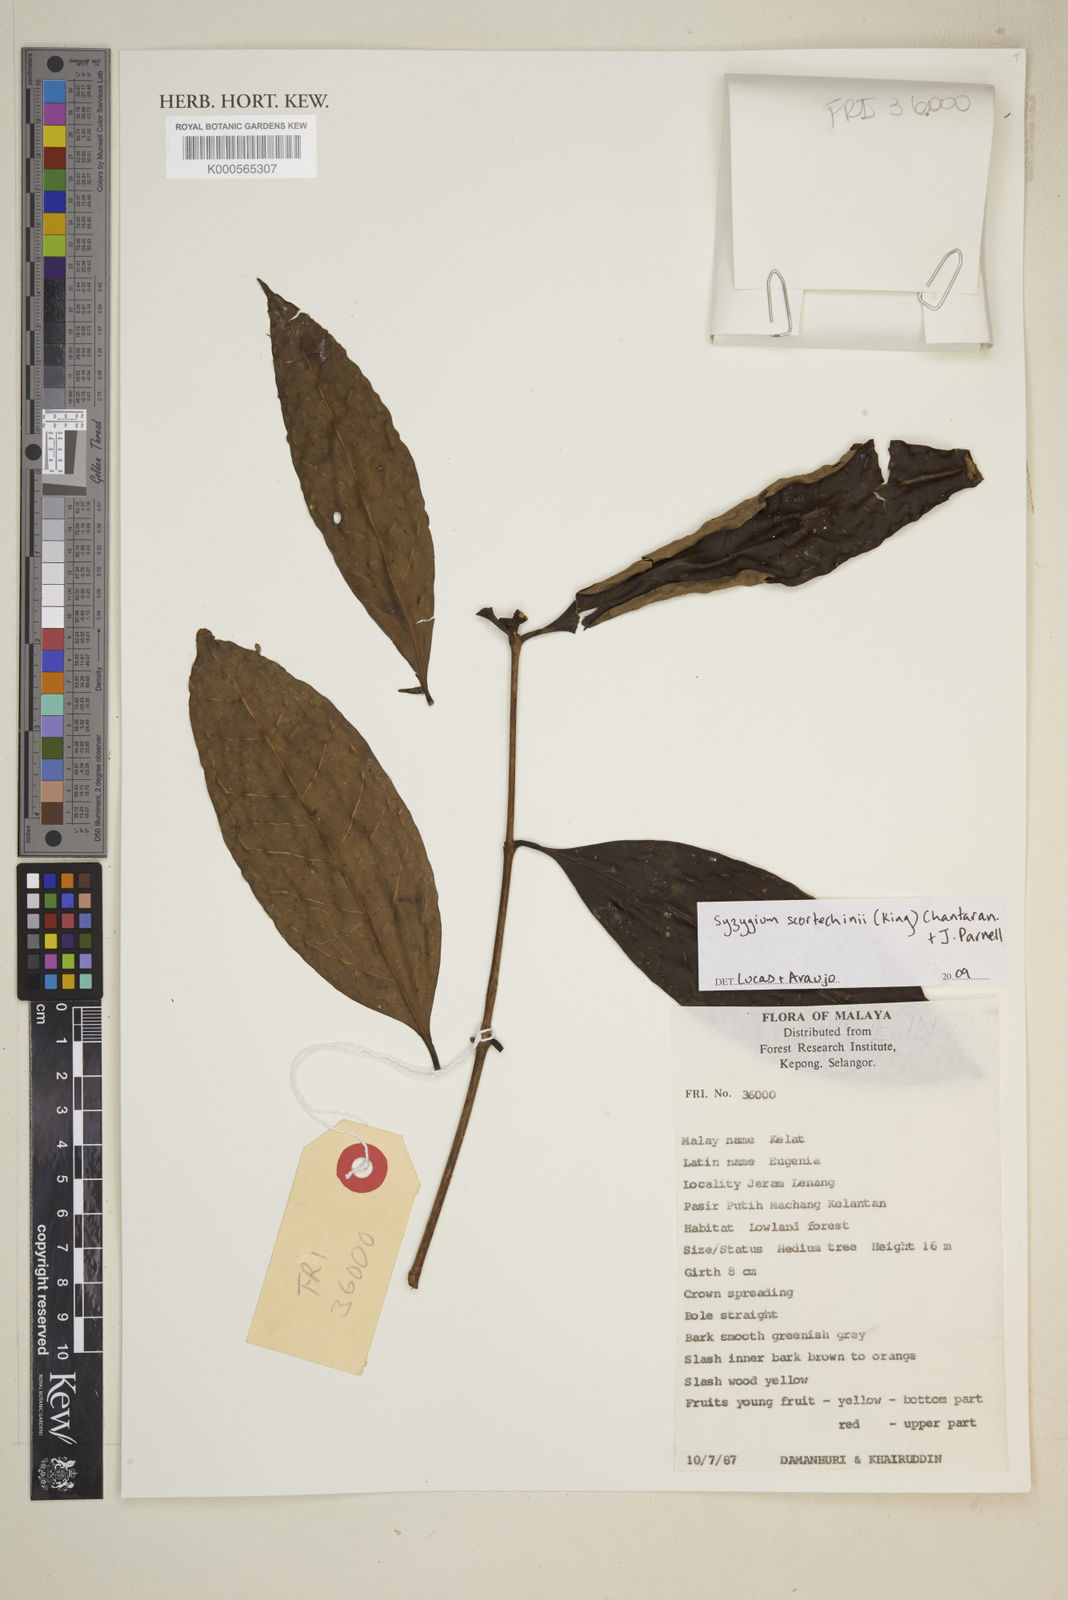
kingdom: Plantae
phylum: Tracheophyta
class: Magnoliopsida
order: Myrtales
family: Myrtaceae
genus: Syzygium
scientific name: Syzygium scortechinii
